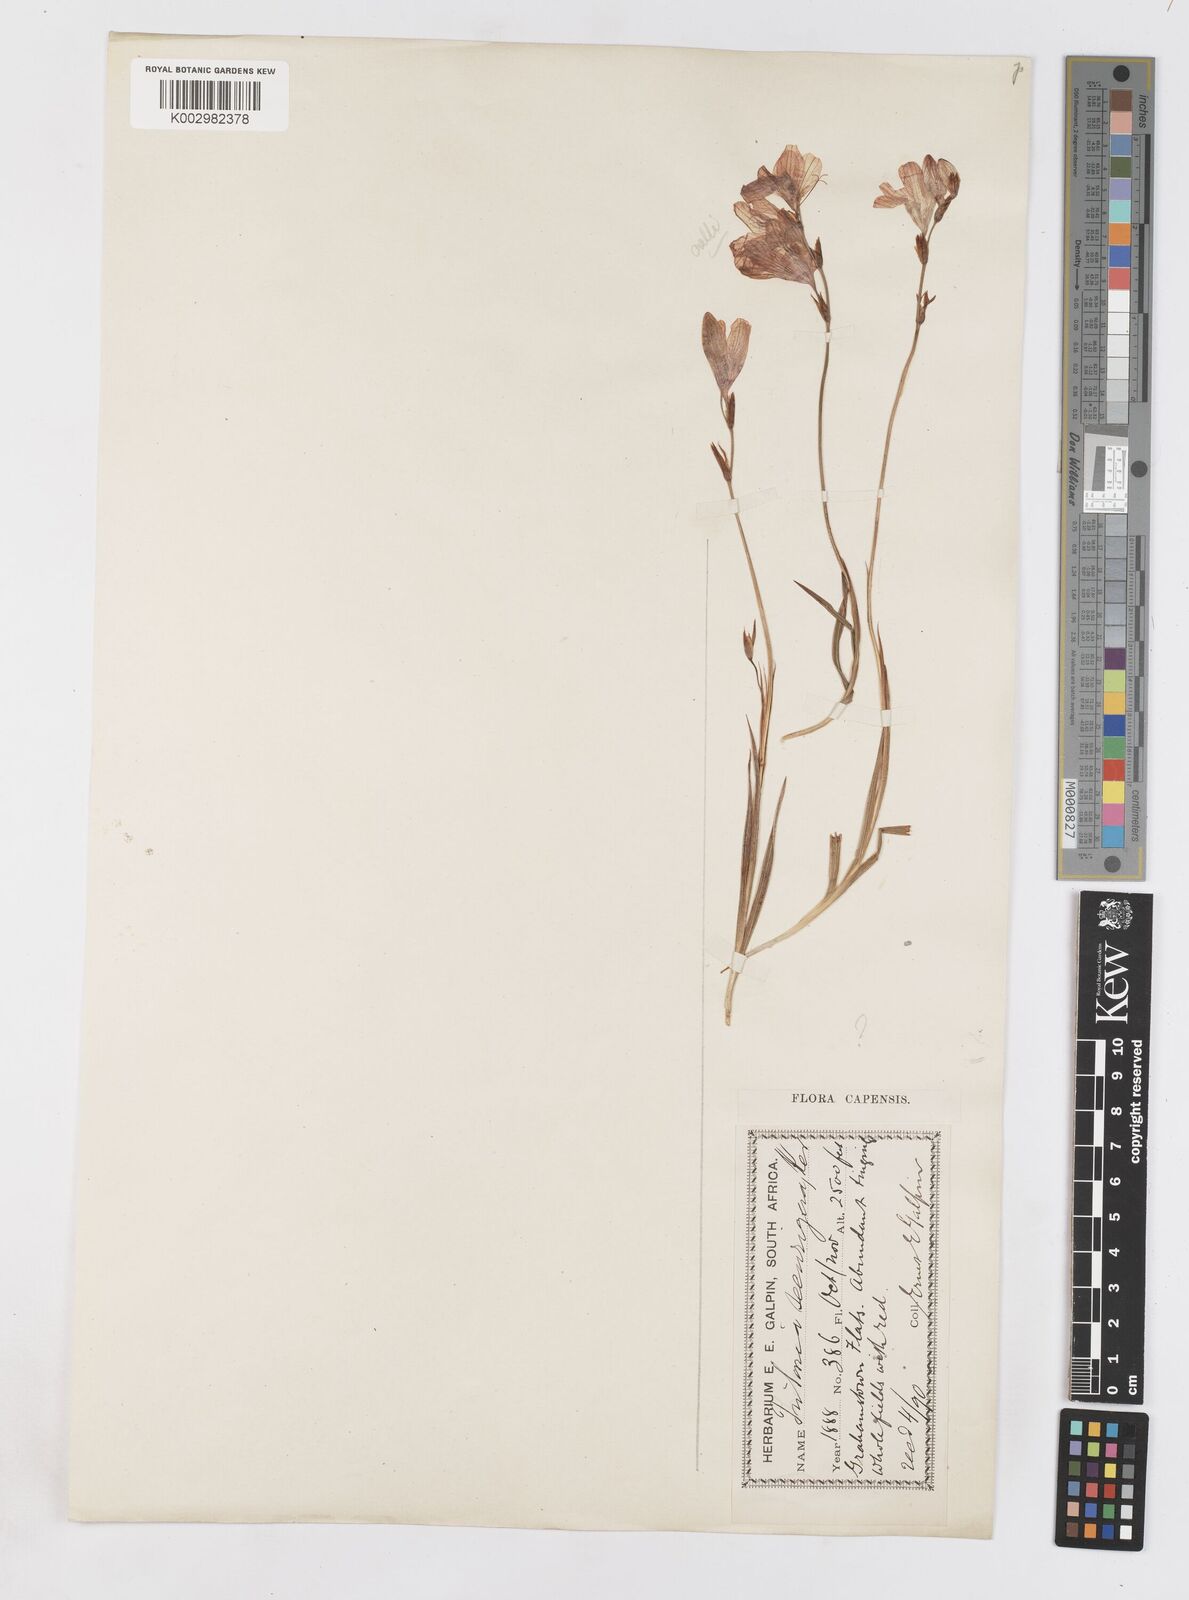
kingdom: Plantae
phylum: Tracheophyta
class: Liliopsida
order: Asparagales
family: Iridaceae
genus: Tritonia
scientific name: Tritonia securigera
